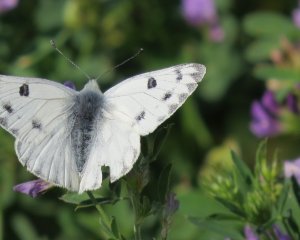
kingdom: Animalia
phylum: Arthropoda
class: Insecta
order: Lepidoptera
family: Pieridae
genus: Pontia
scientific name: Pontia protodice
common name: Checkered White
